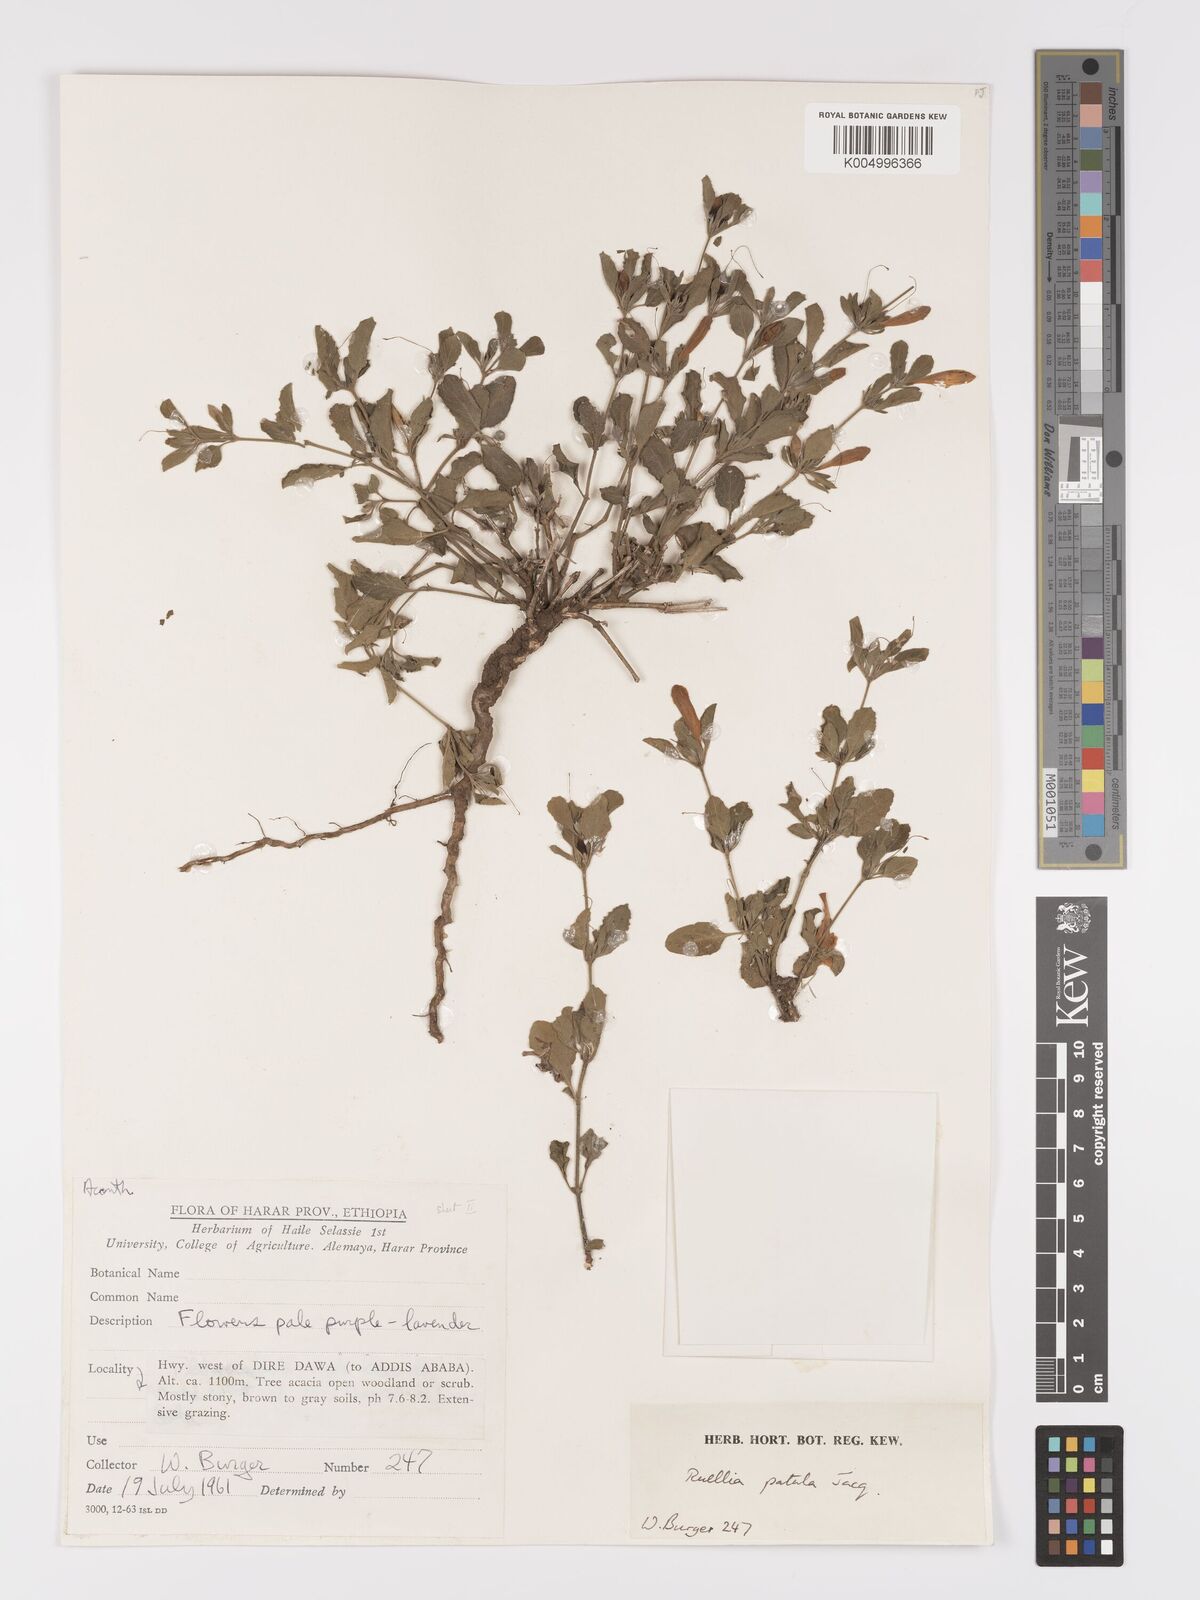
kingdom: Plantae
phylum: Tracheophyta
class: Magnoliopsida
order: Lamiales
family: Acanthaceae
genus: Ruellia
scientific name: Ruellia patula
